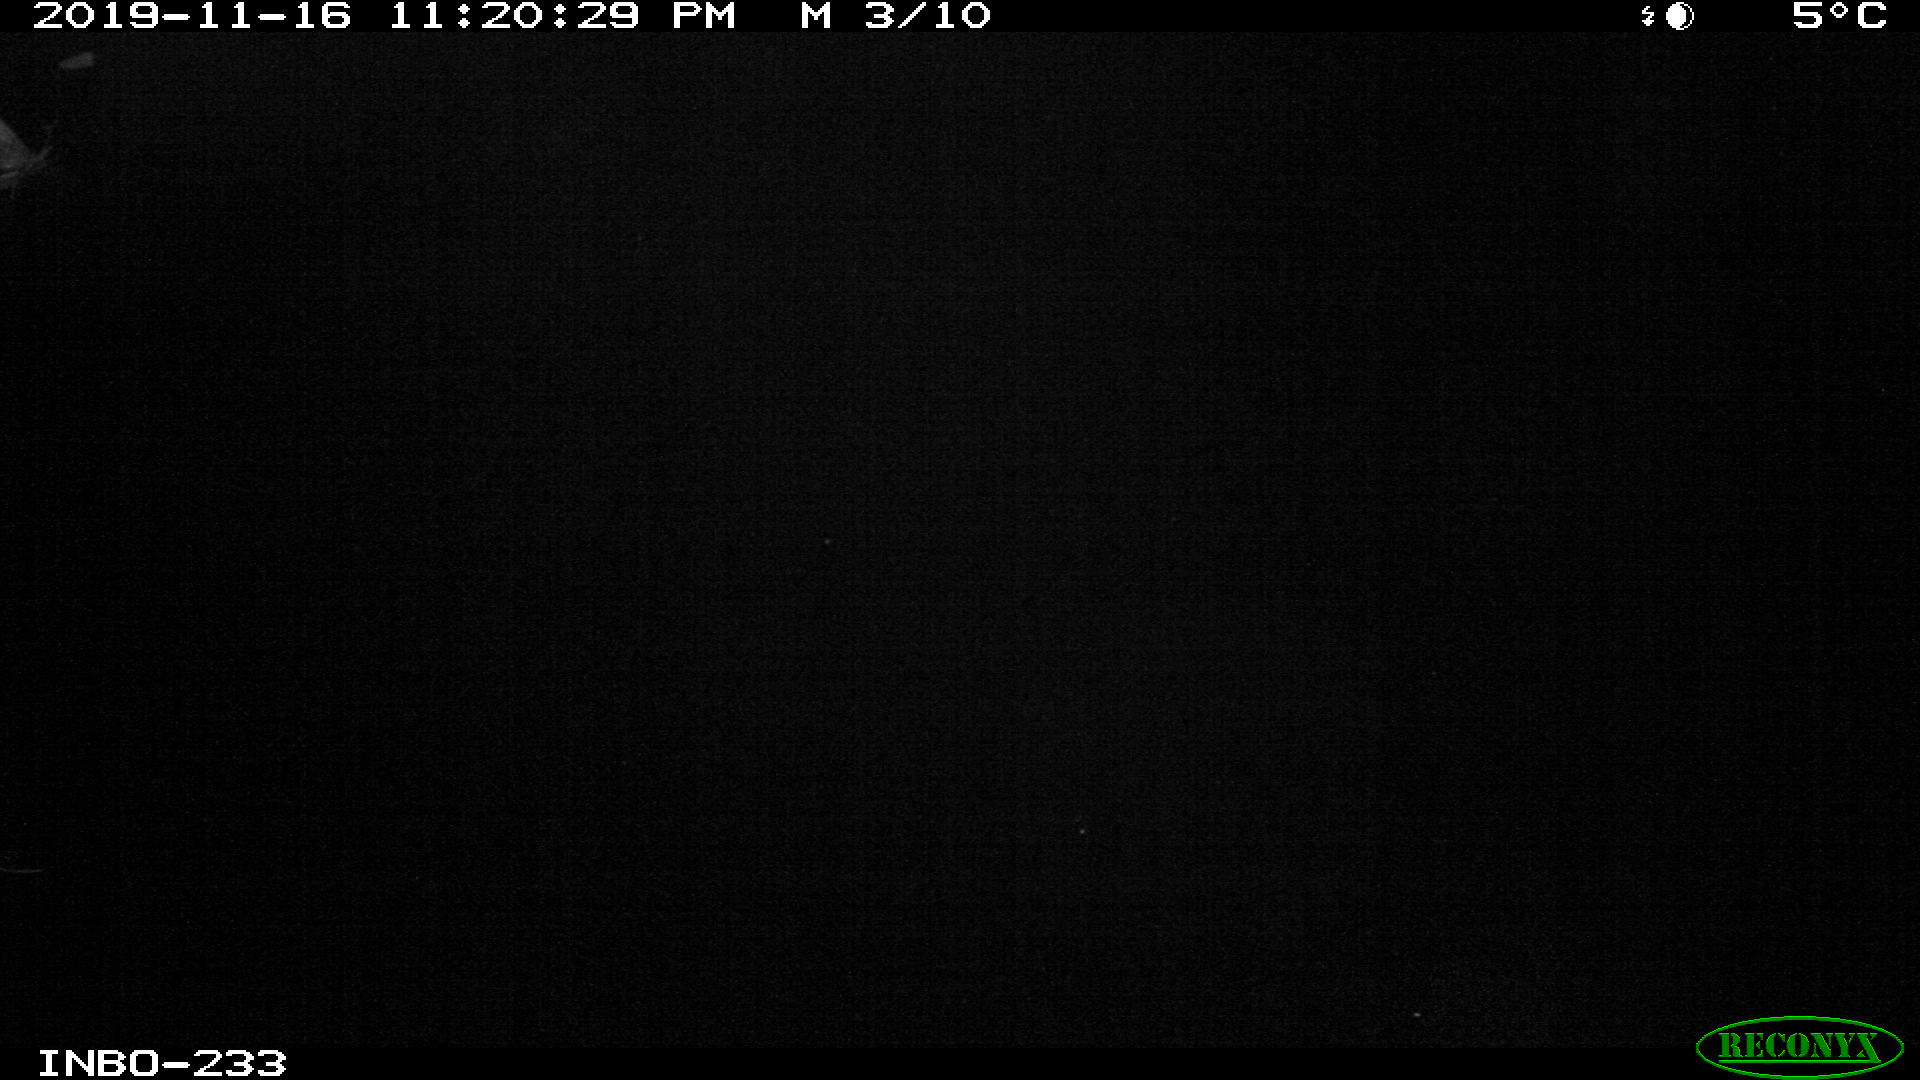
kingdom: Animalia
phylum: Chordata
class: Mammalia
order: Rodentia
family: Muridae
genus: Rattus
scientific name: Rattus norvegicus
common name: Brown rat
